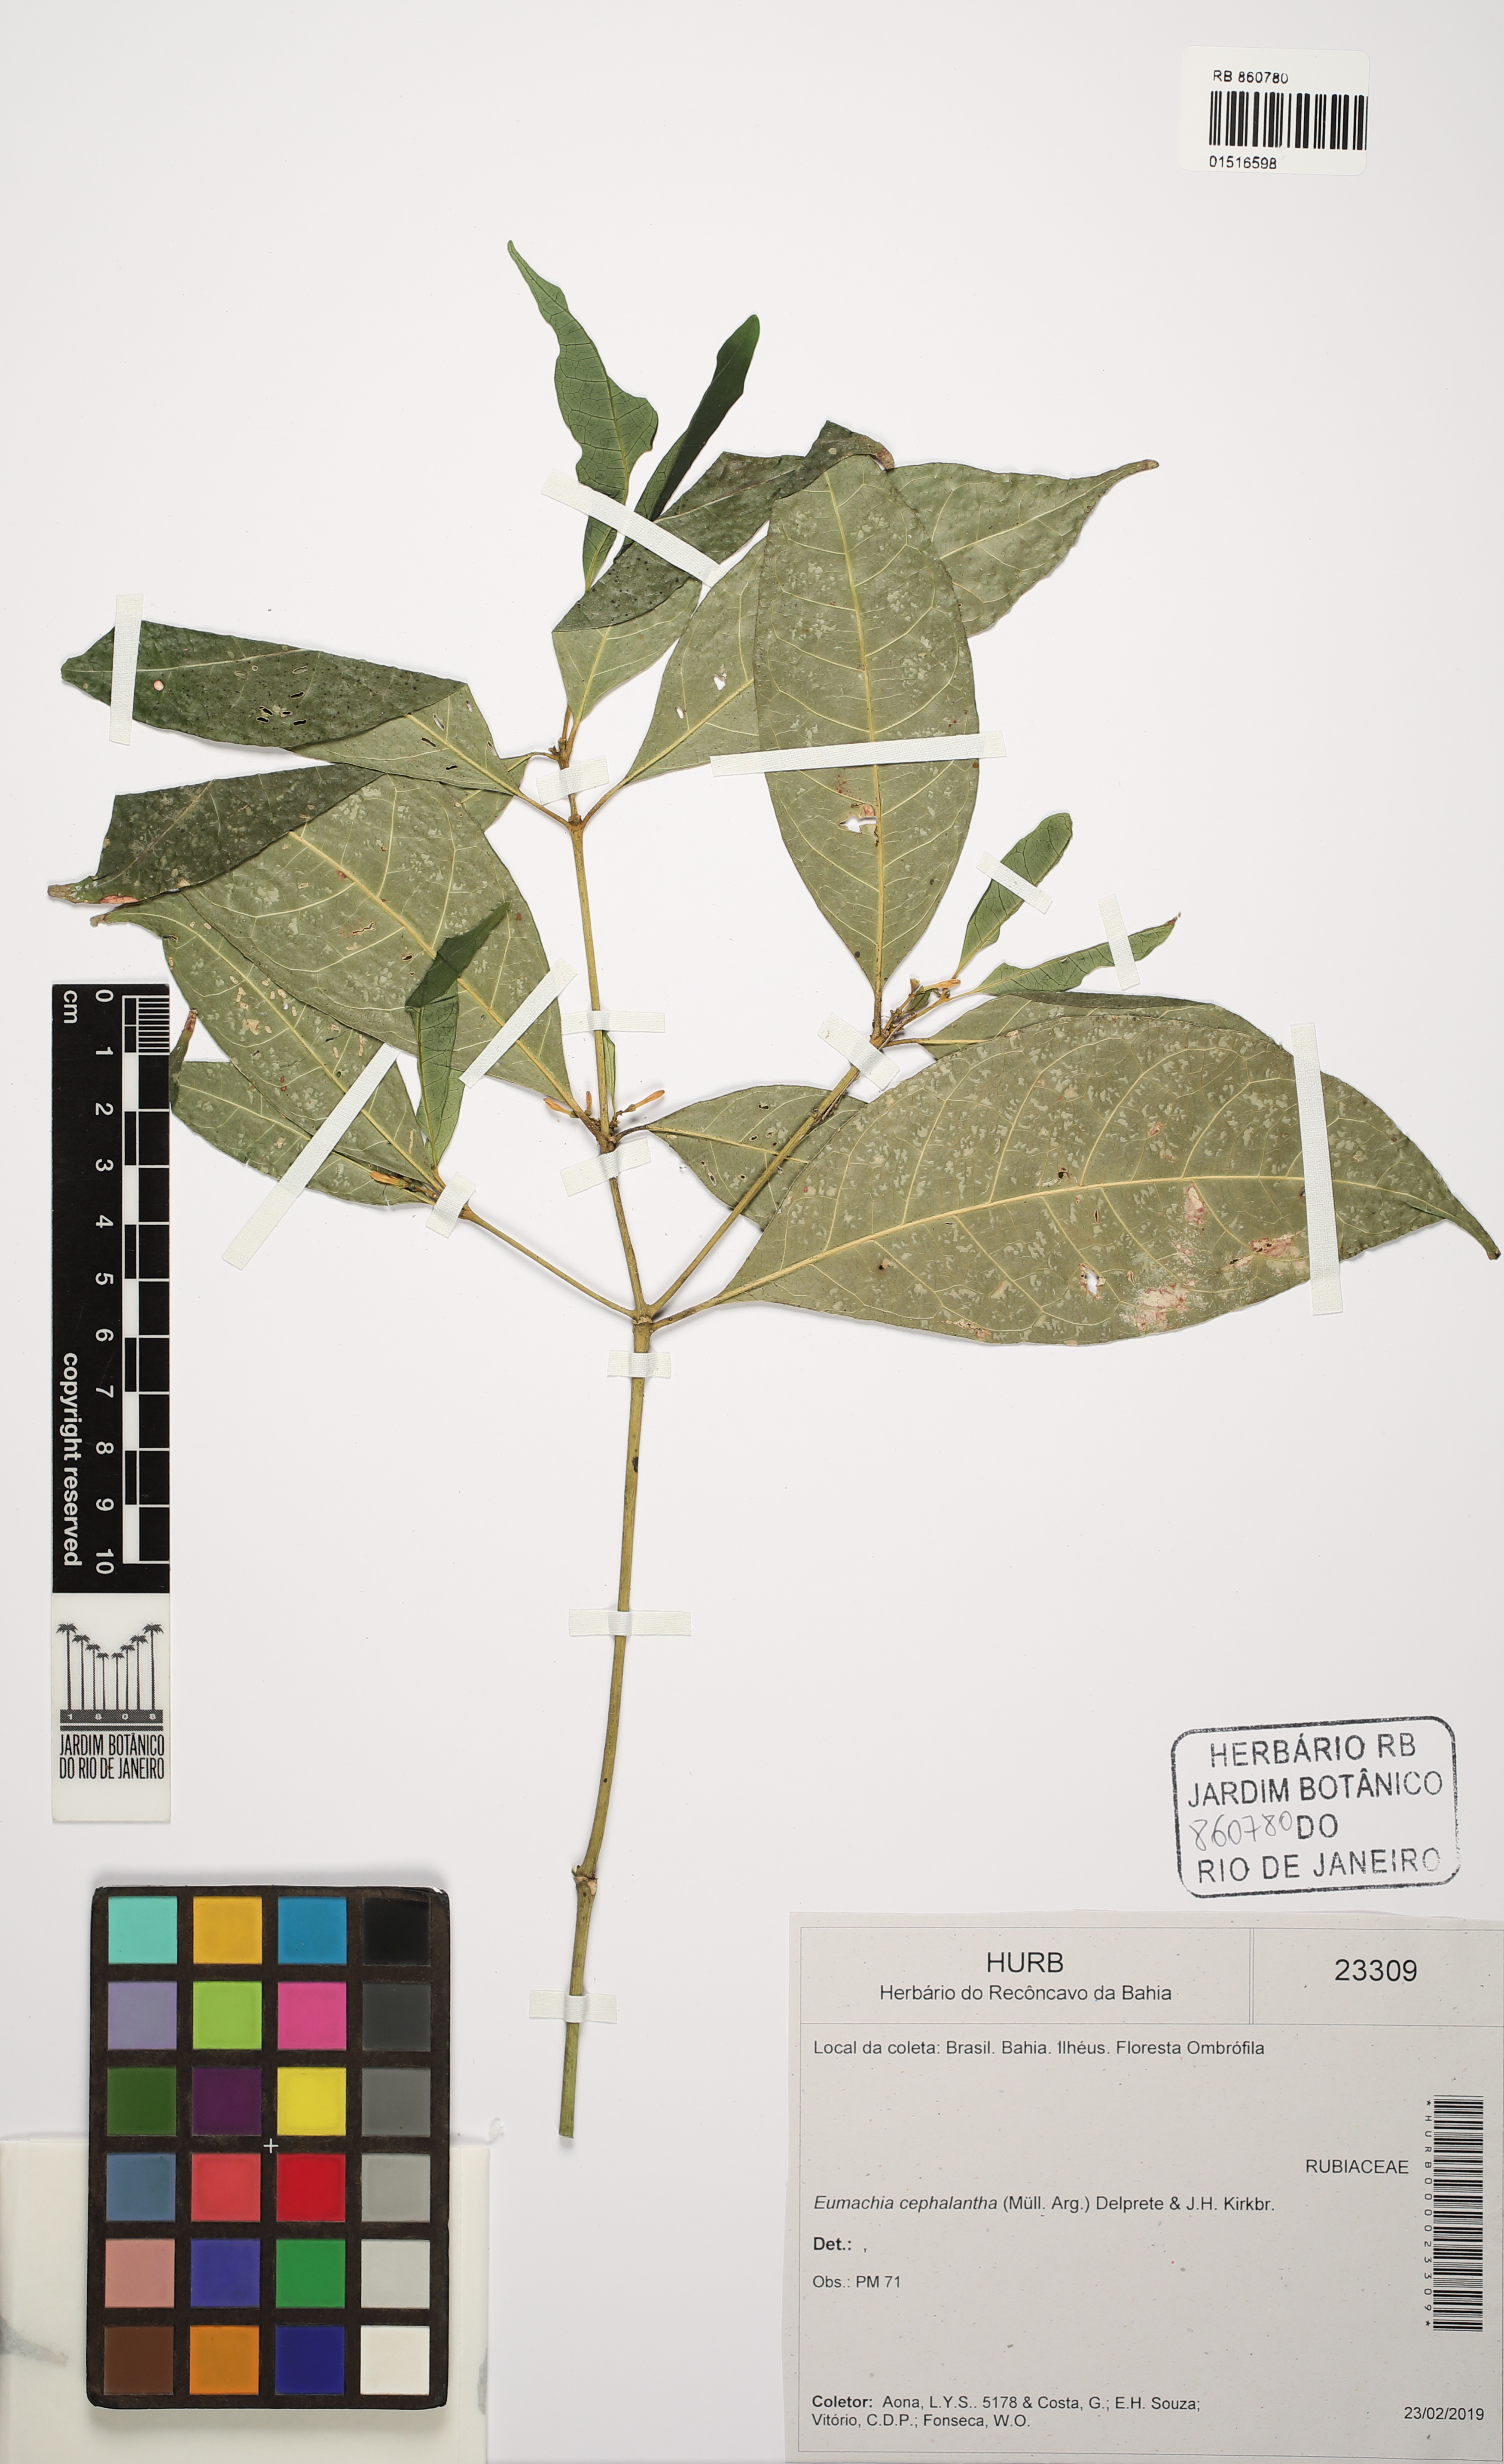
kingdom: Plantae
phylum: Tracheophyta
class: Magnoliopsida
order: Gentianales
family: Rubiaceae
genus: Eumachia
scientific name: Eumachia cephalantha
